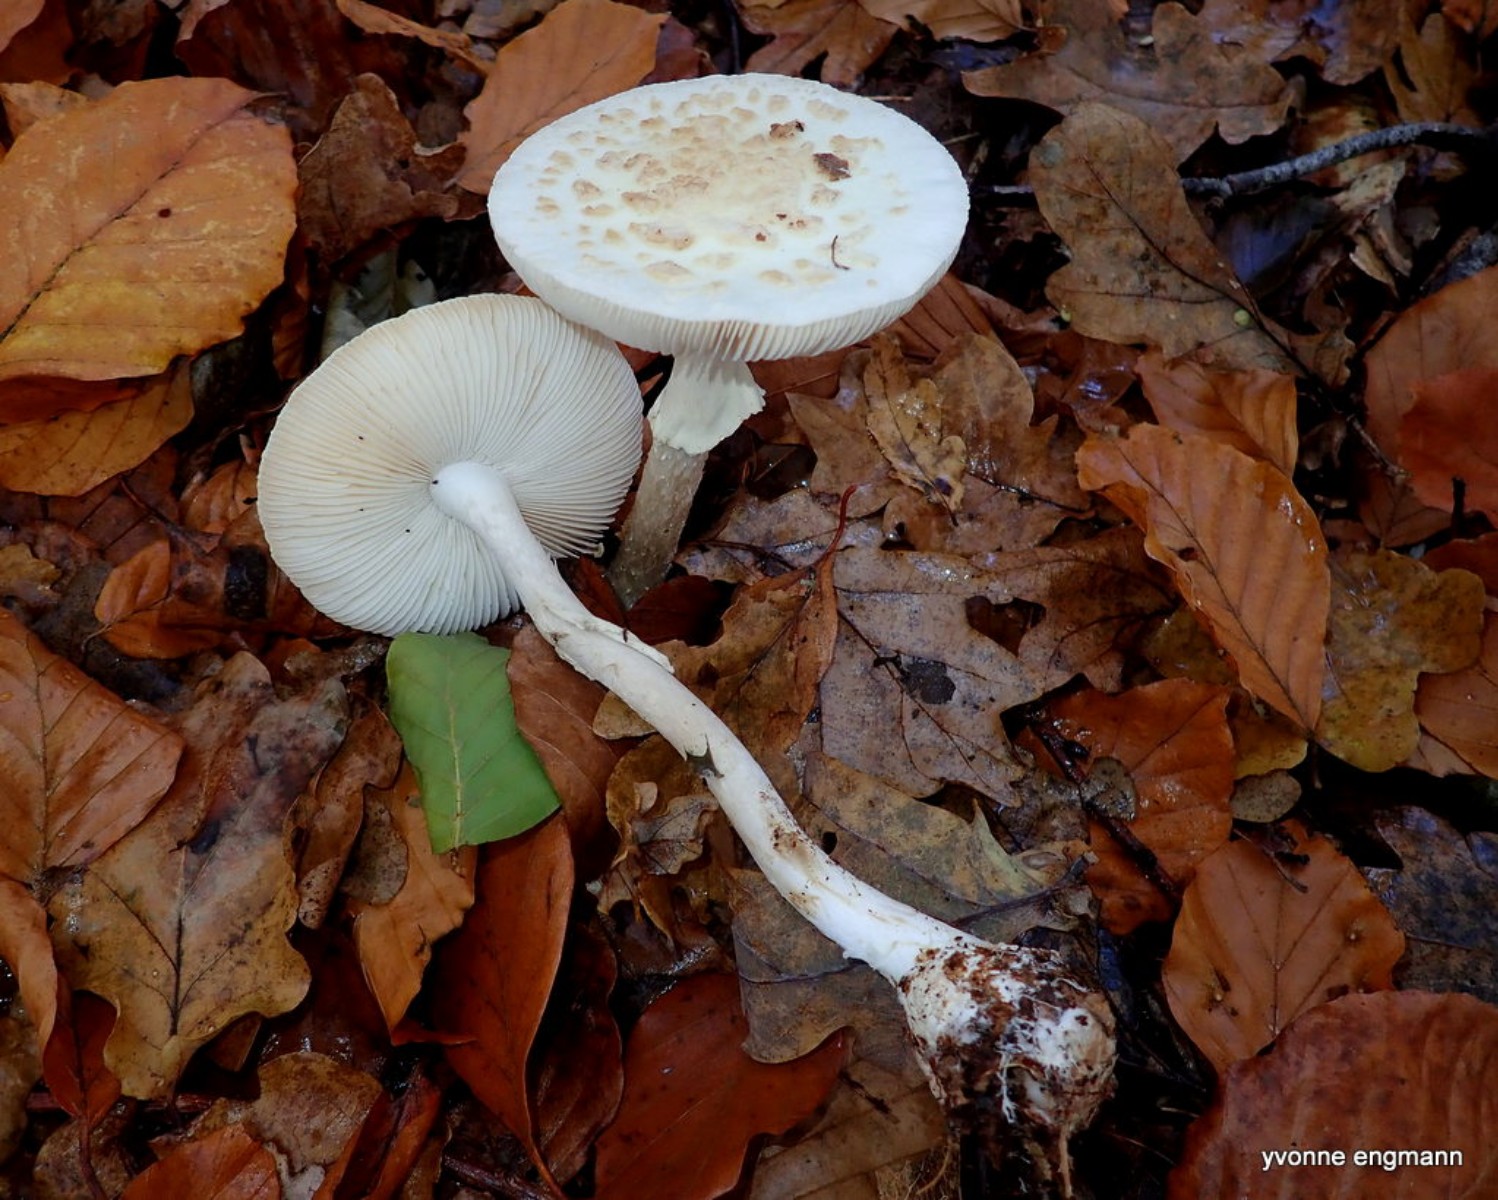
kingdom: Fungi
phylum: Basidiomycota
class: Agaricomycetes
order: Agaricales
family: Amanitaceae
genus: Amanita
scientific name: Amanita citrina
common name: False death-cap
